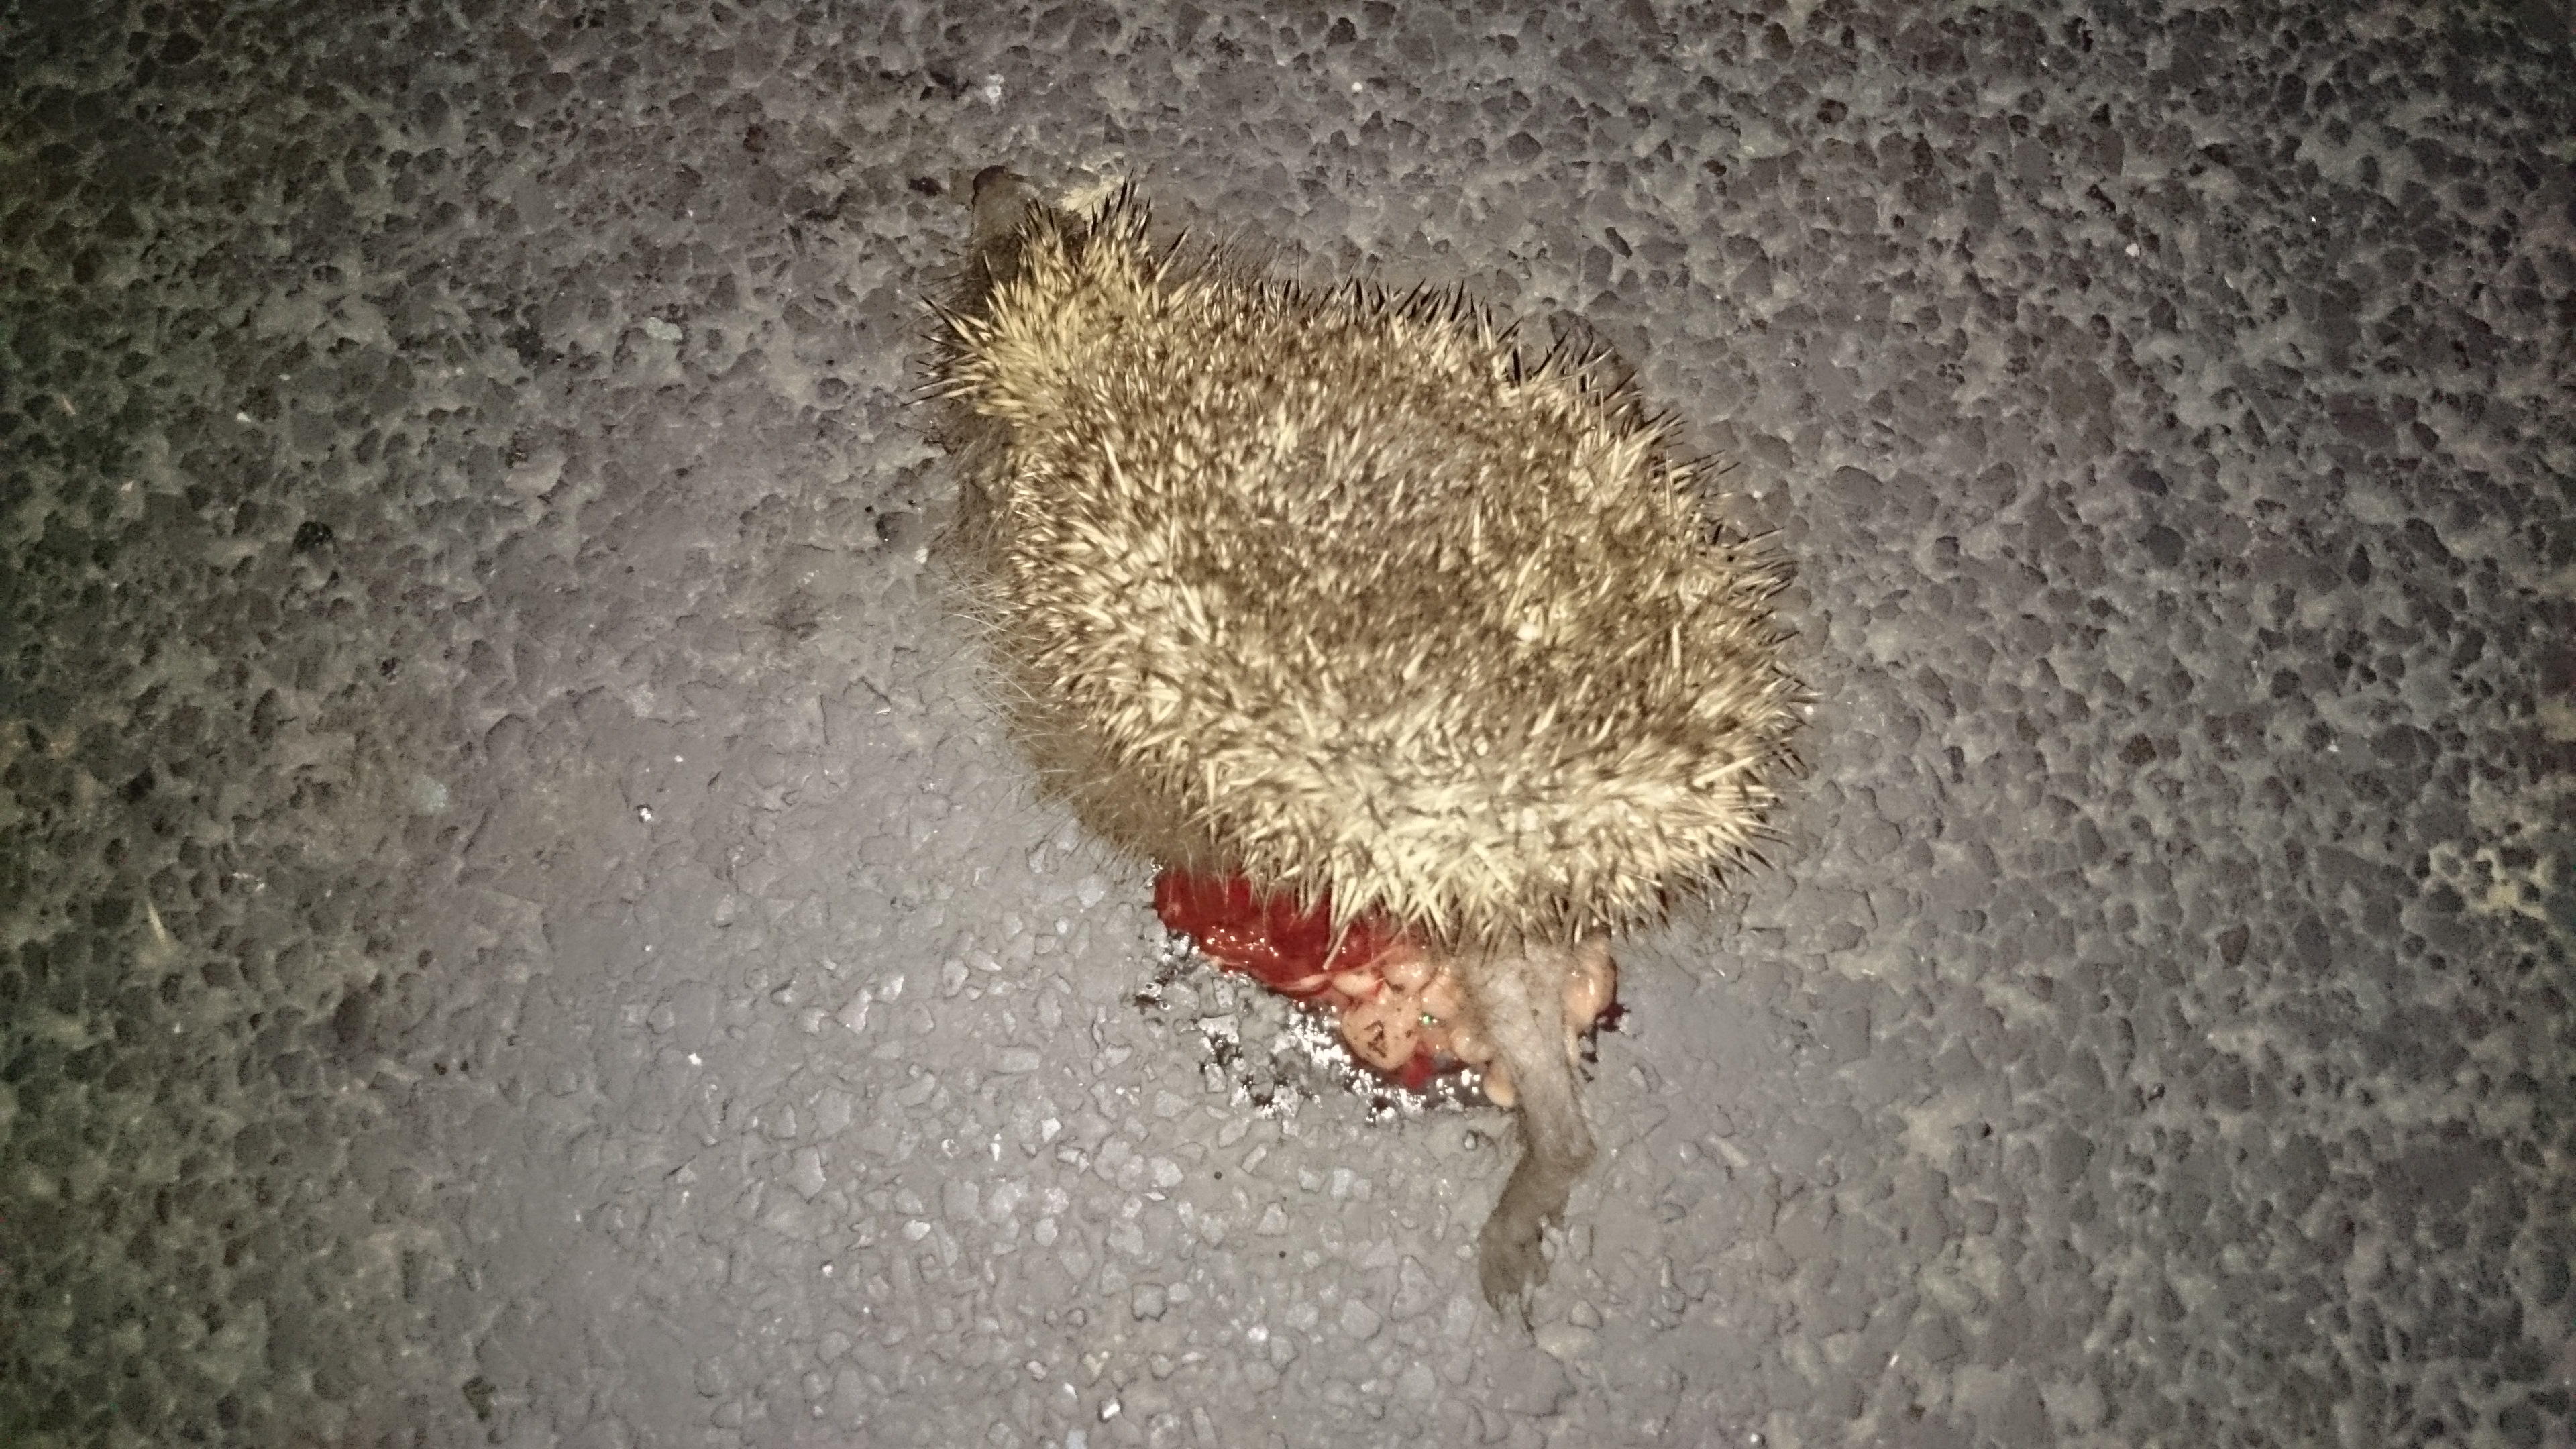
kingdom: Animalia
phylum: Chordata
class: Mammalia
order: Erinaceomorpha
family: Erinaceidae
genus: Erinaceus
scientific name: Erinaceus
